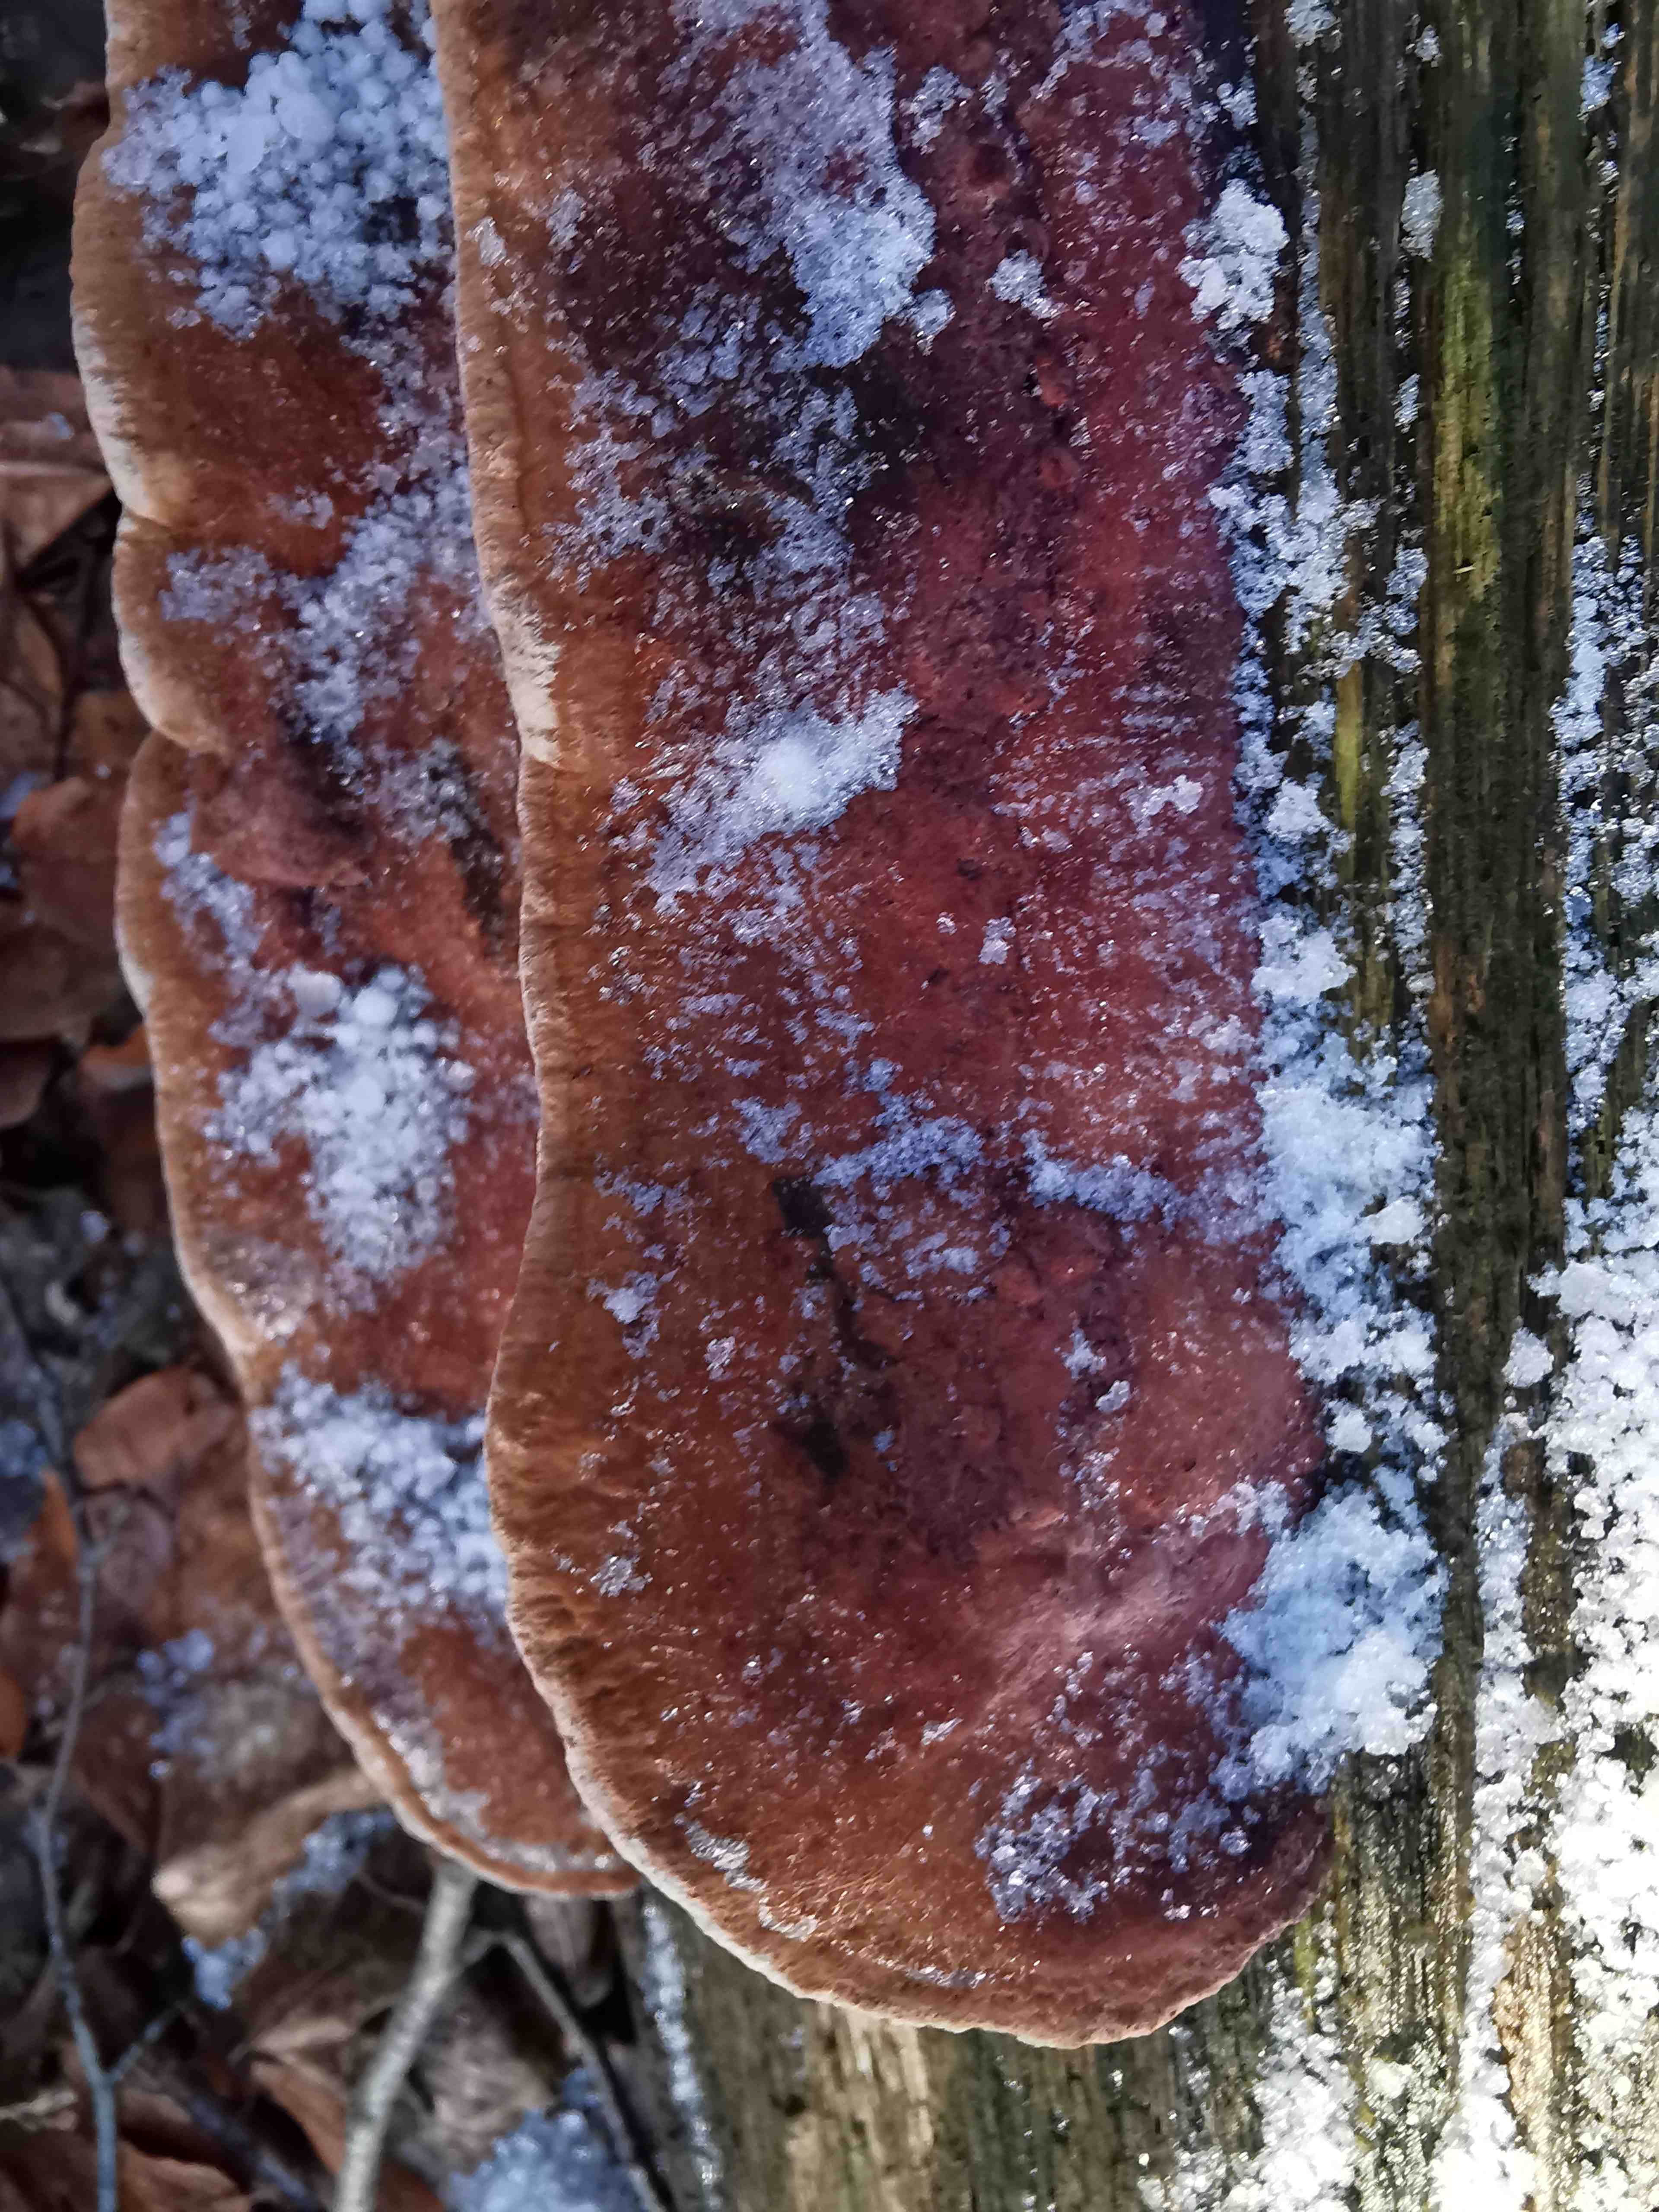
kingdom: Fungi
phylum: Basidiomycota
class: Agaricomycetes
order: Polyporales
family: Fomitopsidaceae
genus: Daedalea
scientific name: Daedalea quercina
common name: ege-labyrintsvamp
